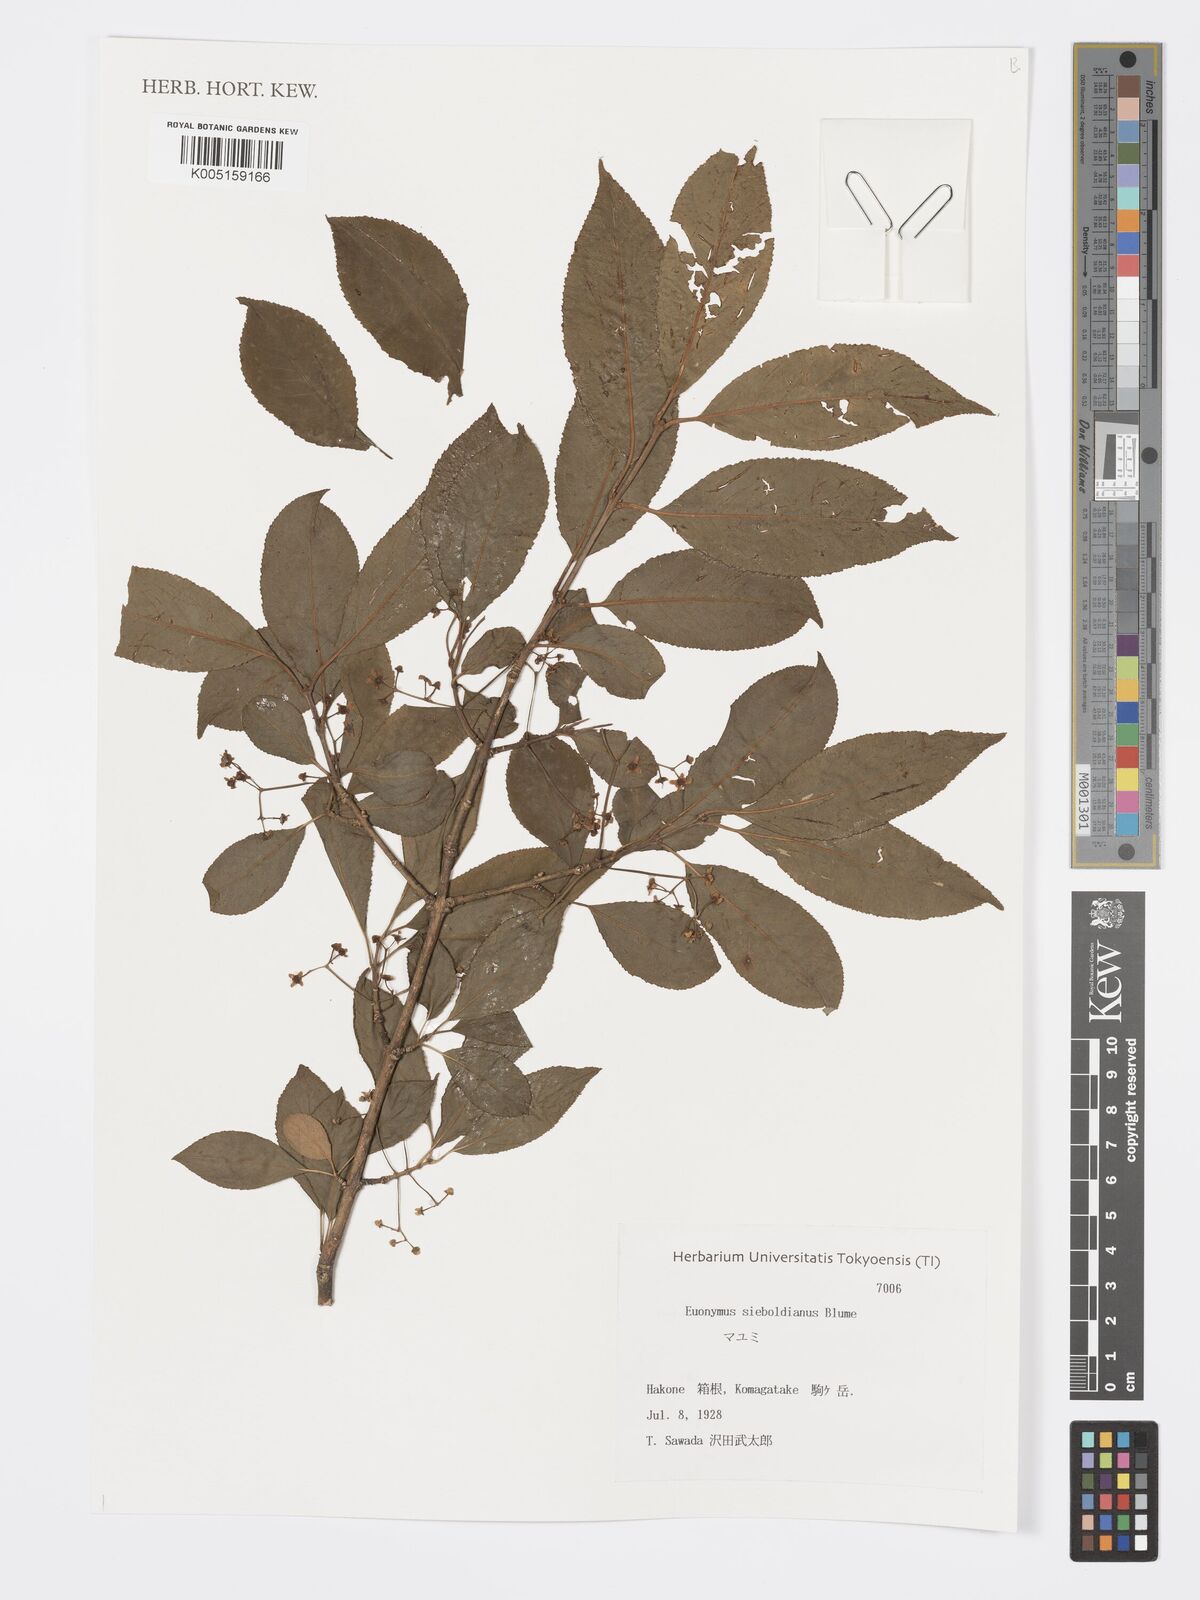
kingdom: Plantae
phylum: Tracheophyta
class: Magnoliopsida
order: Celastrales
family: Celastraceae
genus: Euonymus
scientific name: Euonymus hamiltonianus
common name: Hamilton's spindletree
